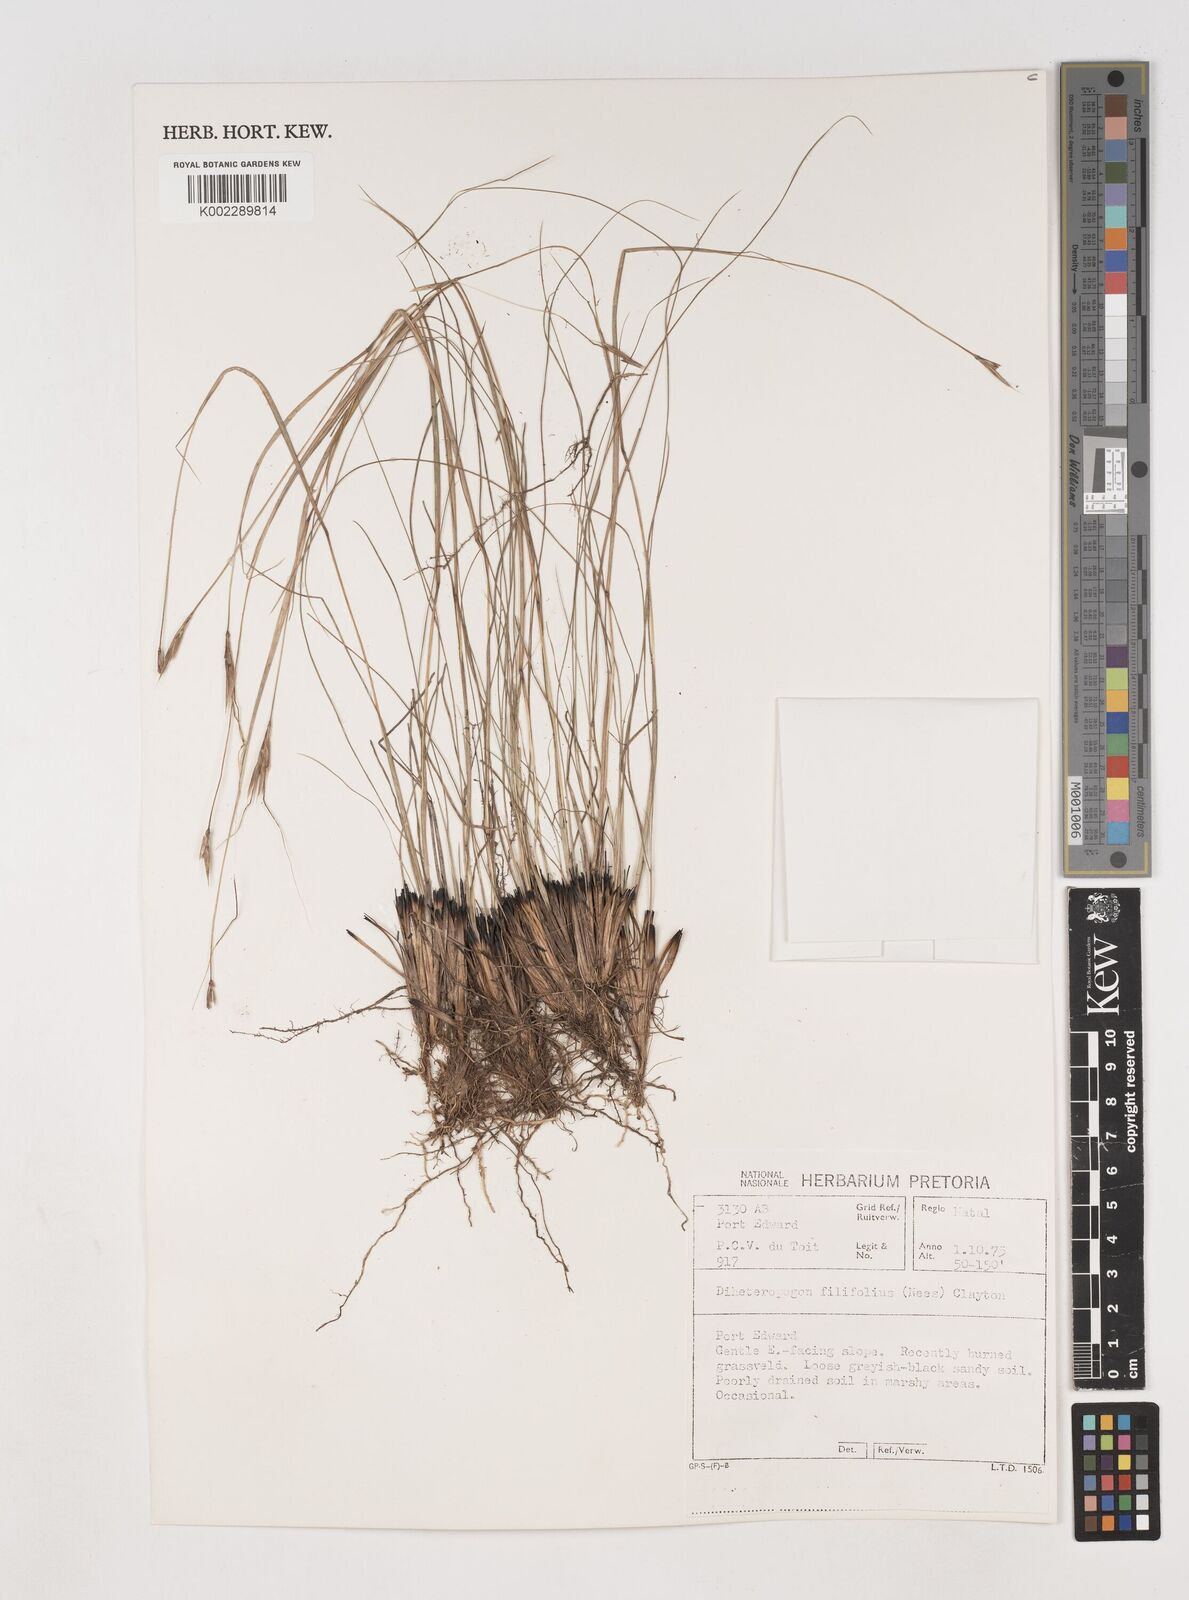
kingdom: Plantae
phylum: Tracheophyta
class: Liliopsida
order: Poales
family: Poaceae
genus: Diheteropogon
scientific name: Diheteropogon filifolius
